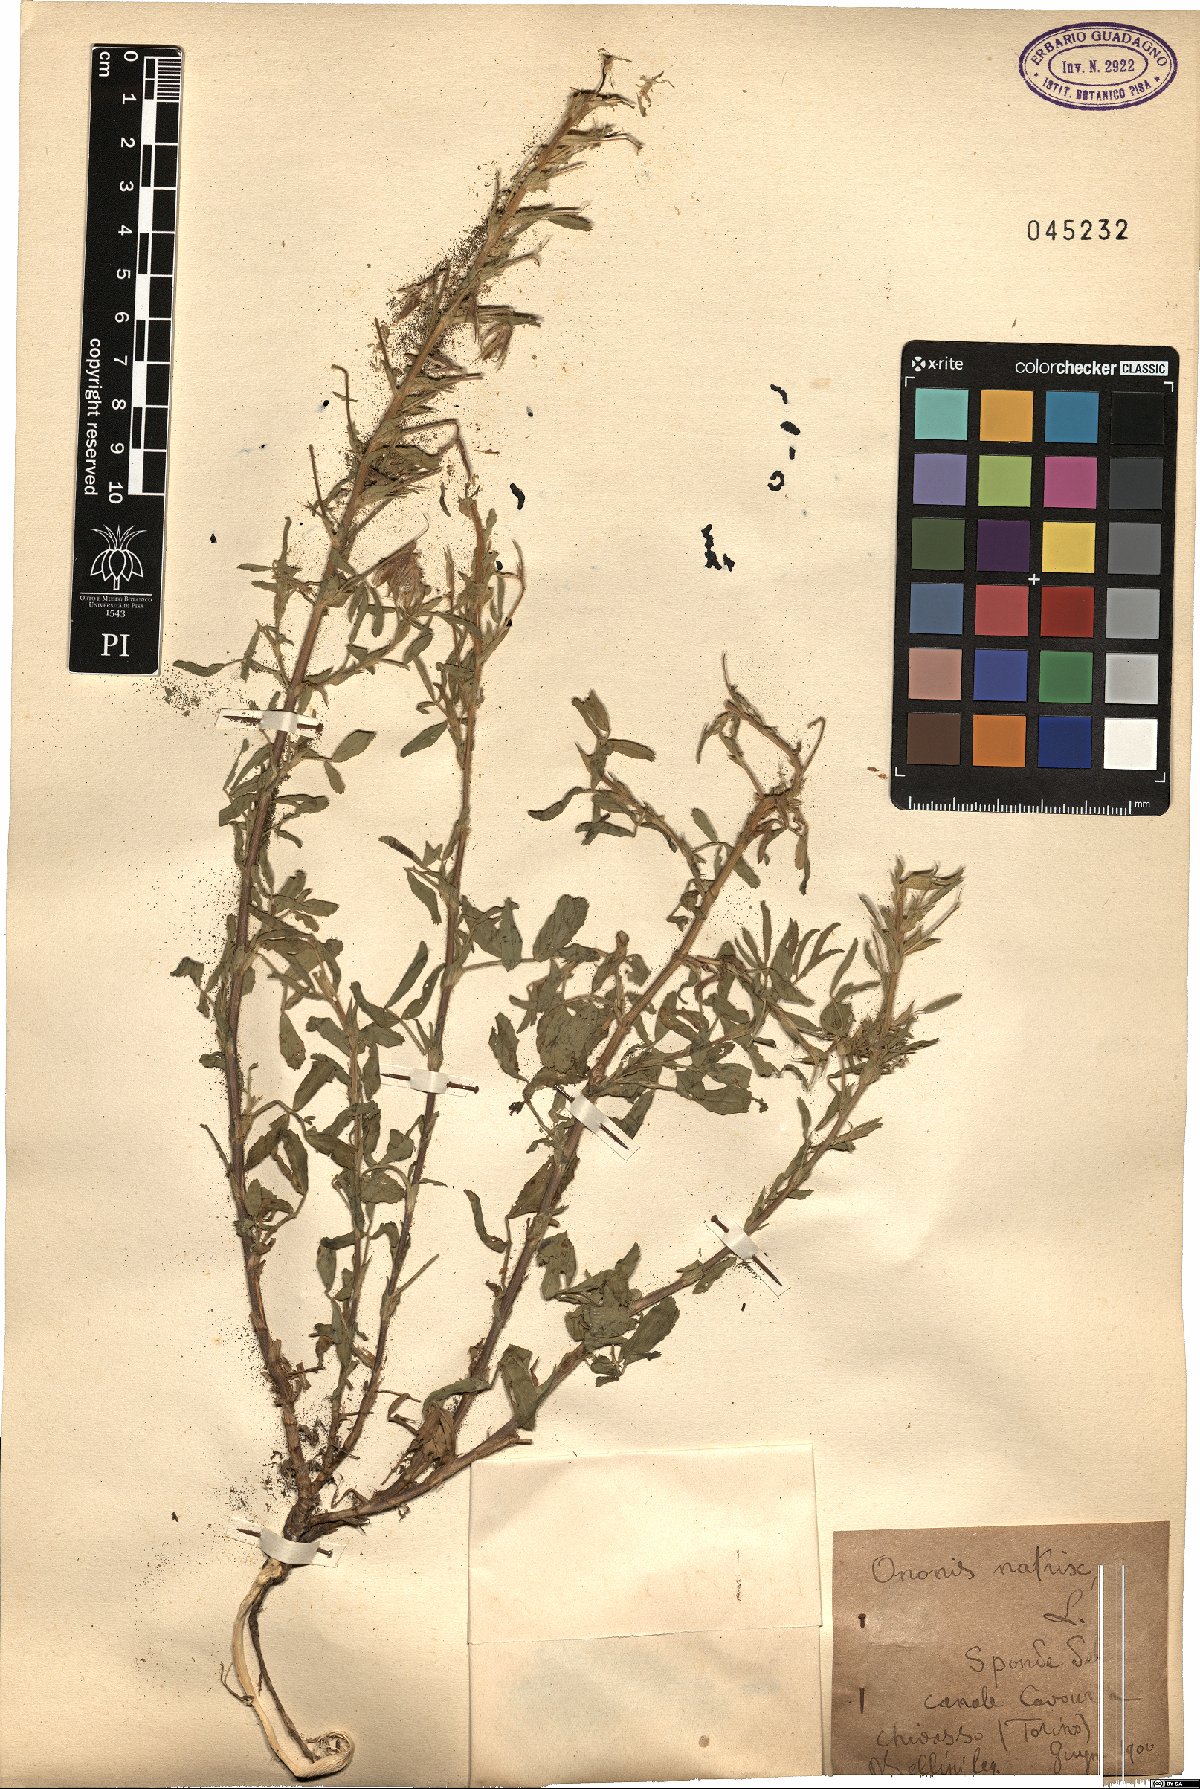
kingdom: Plantae
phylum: Tracheophyta
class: Magnoliopsida
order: Fabales
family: Fabaceae
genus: Ononis
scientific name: Ononis natrix
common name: Yellow restharrow
